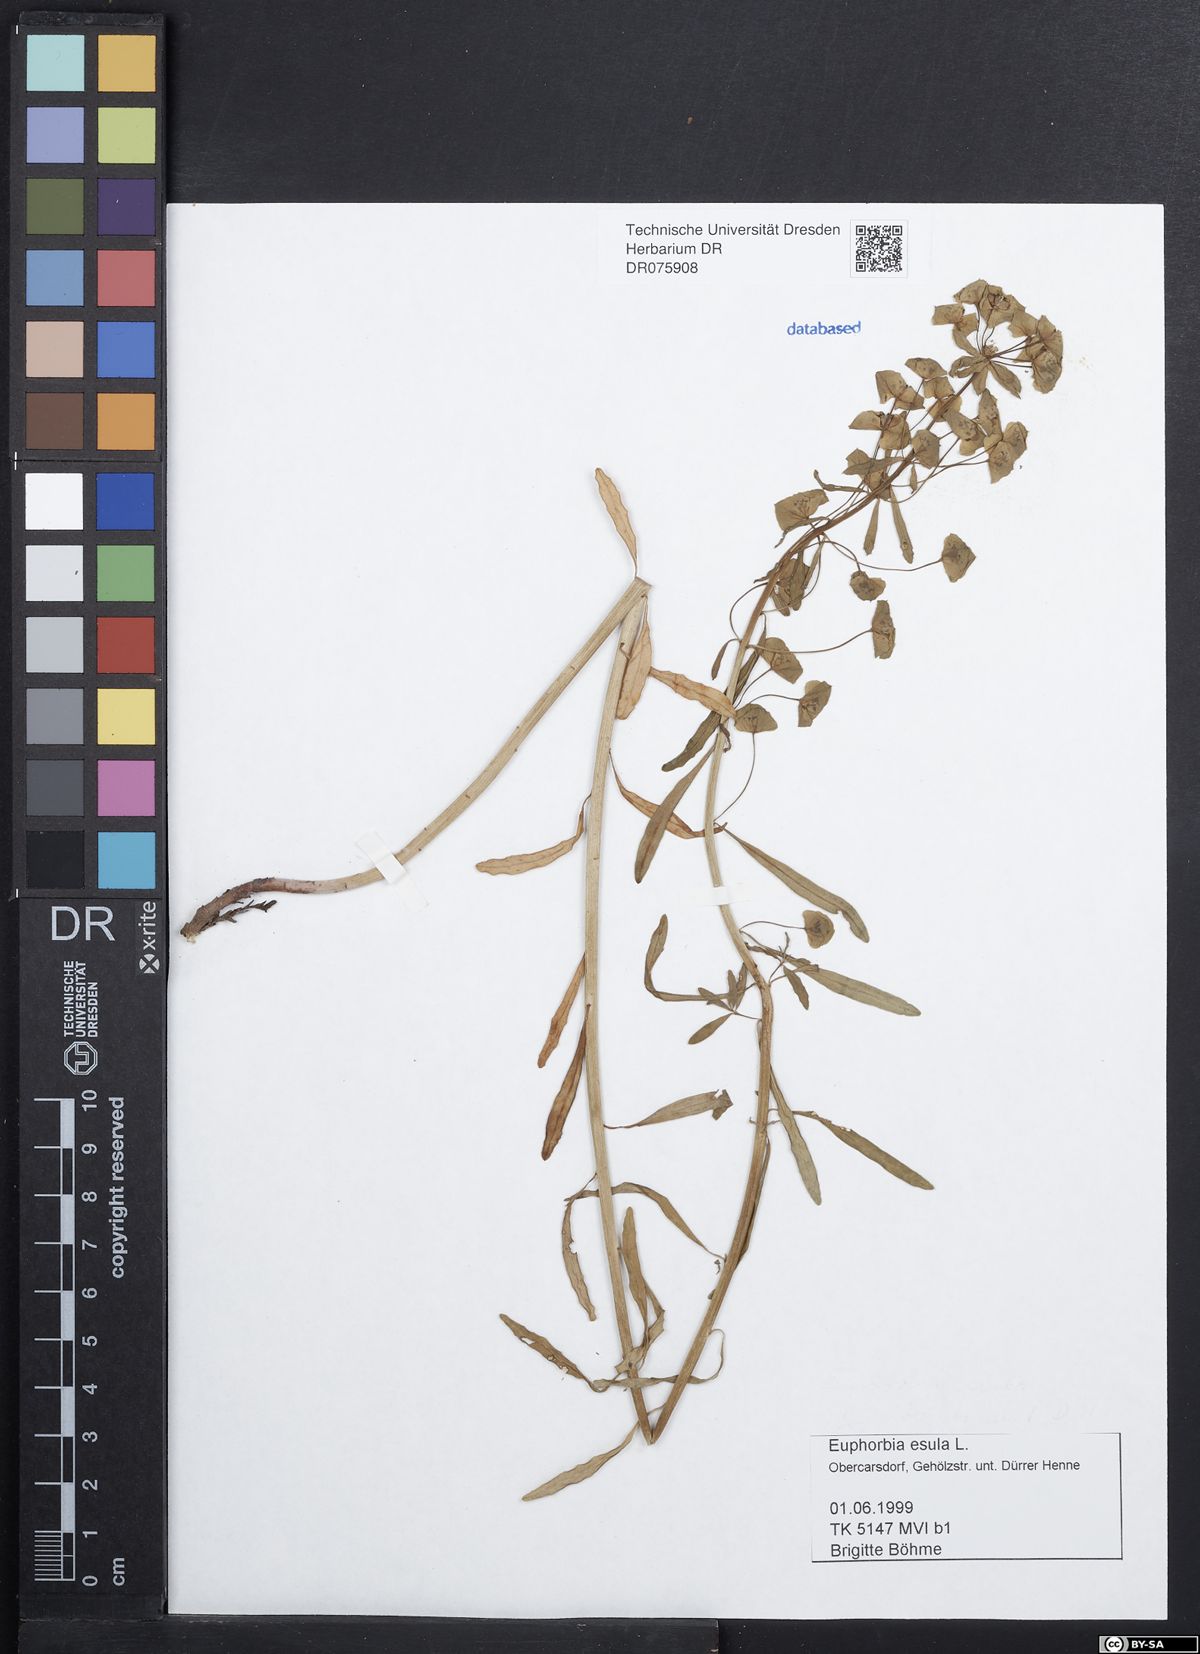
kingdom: Plantae
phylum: Tracheophyta
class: Magnoliopsida
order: Malpighiales
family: Euphorbiaceae
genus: Euphorbia
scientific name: Euphorbia esula
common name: Leafy spurge
